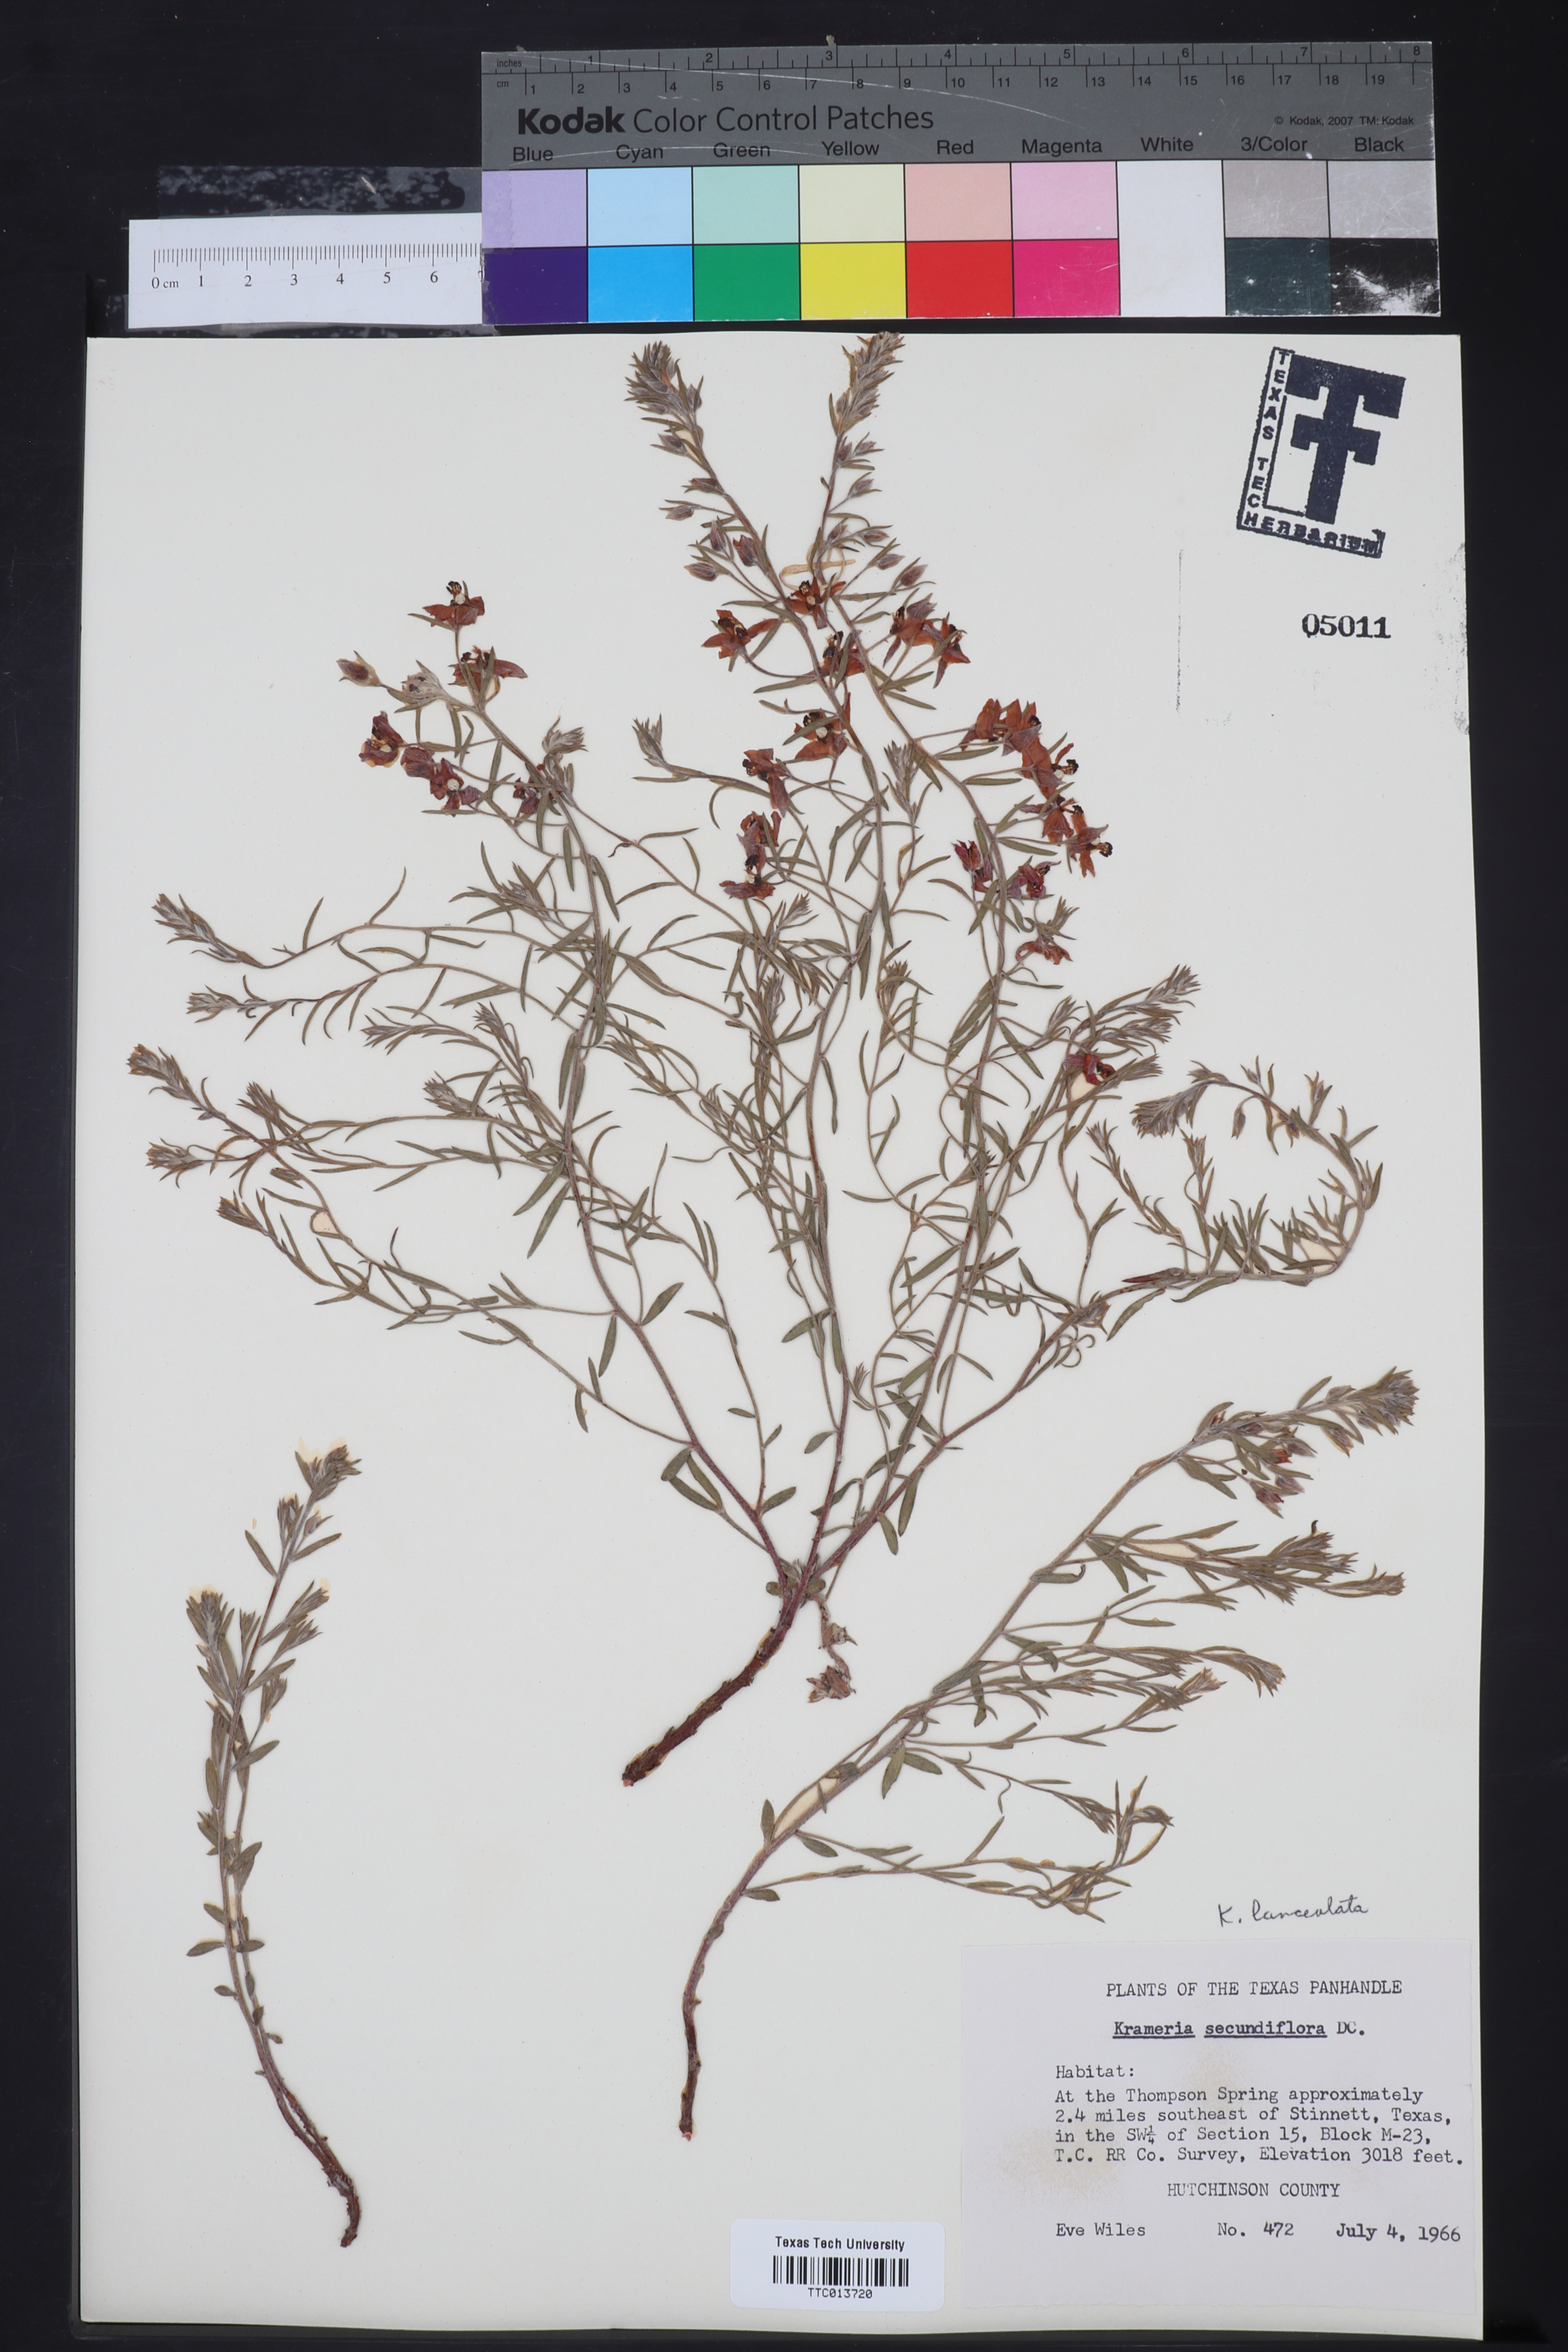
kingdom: Plantae
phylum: Tracheophyta
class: Magnoliopsida
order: Zygophyllales
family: Krameriaceae
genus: Krameria
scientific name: Krameria lanceolata
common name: Ratany
